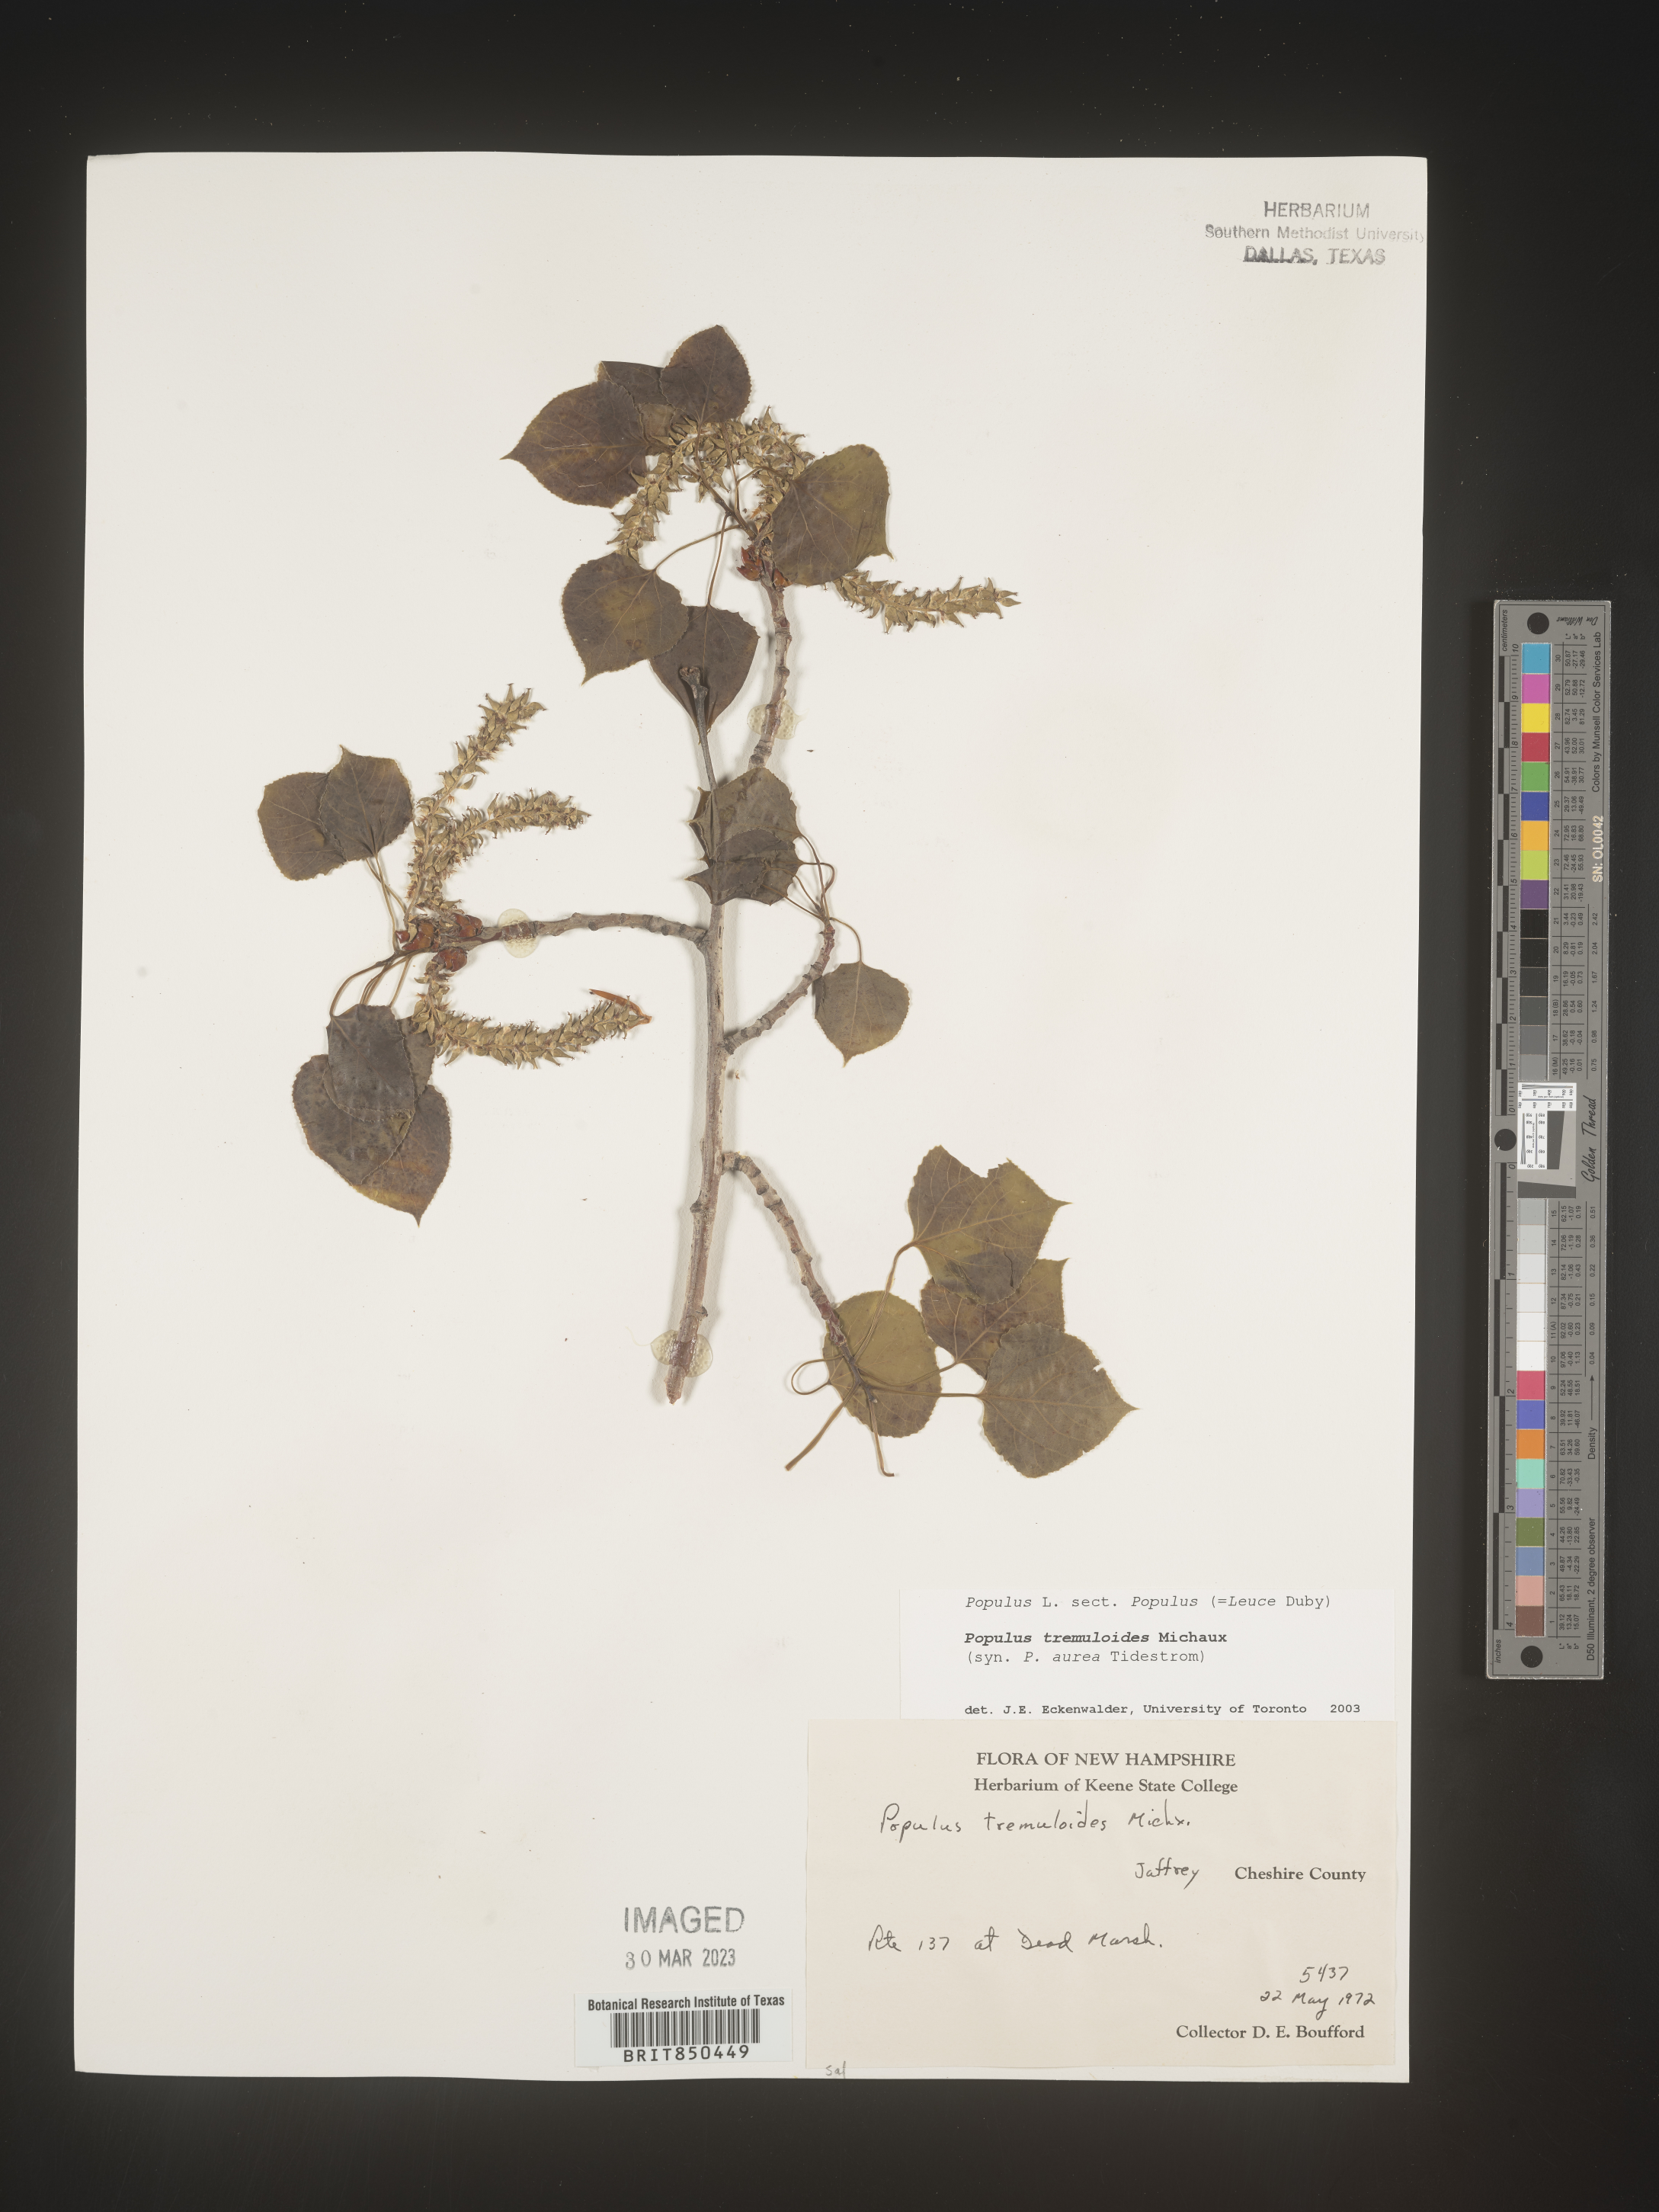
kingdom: Plantae
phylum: Tracheophyta
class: Magnoliopsida
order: Malpighiales
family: Salicaceae
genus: Populus
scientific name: Populus tremuloides
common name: Quaking aspen
